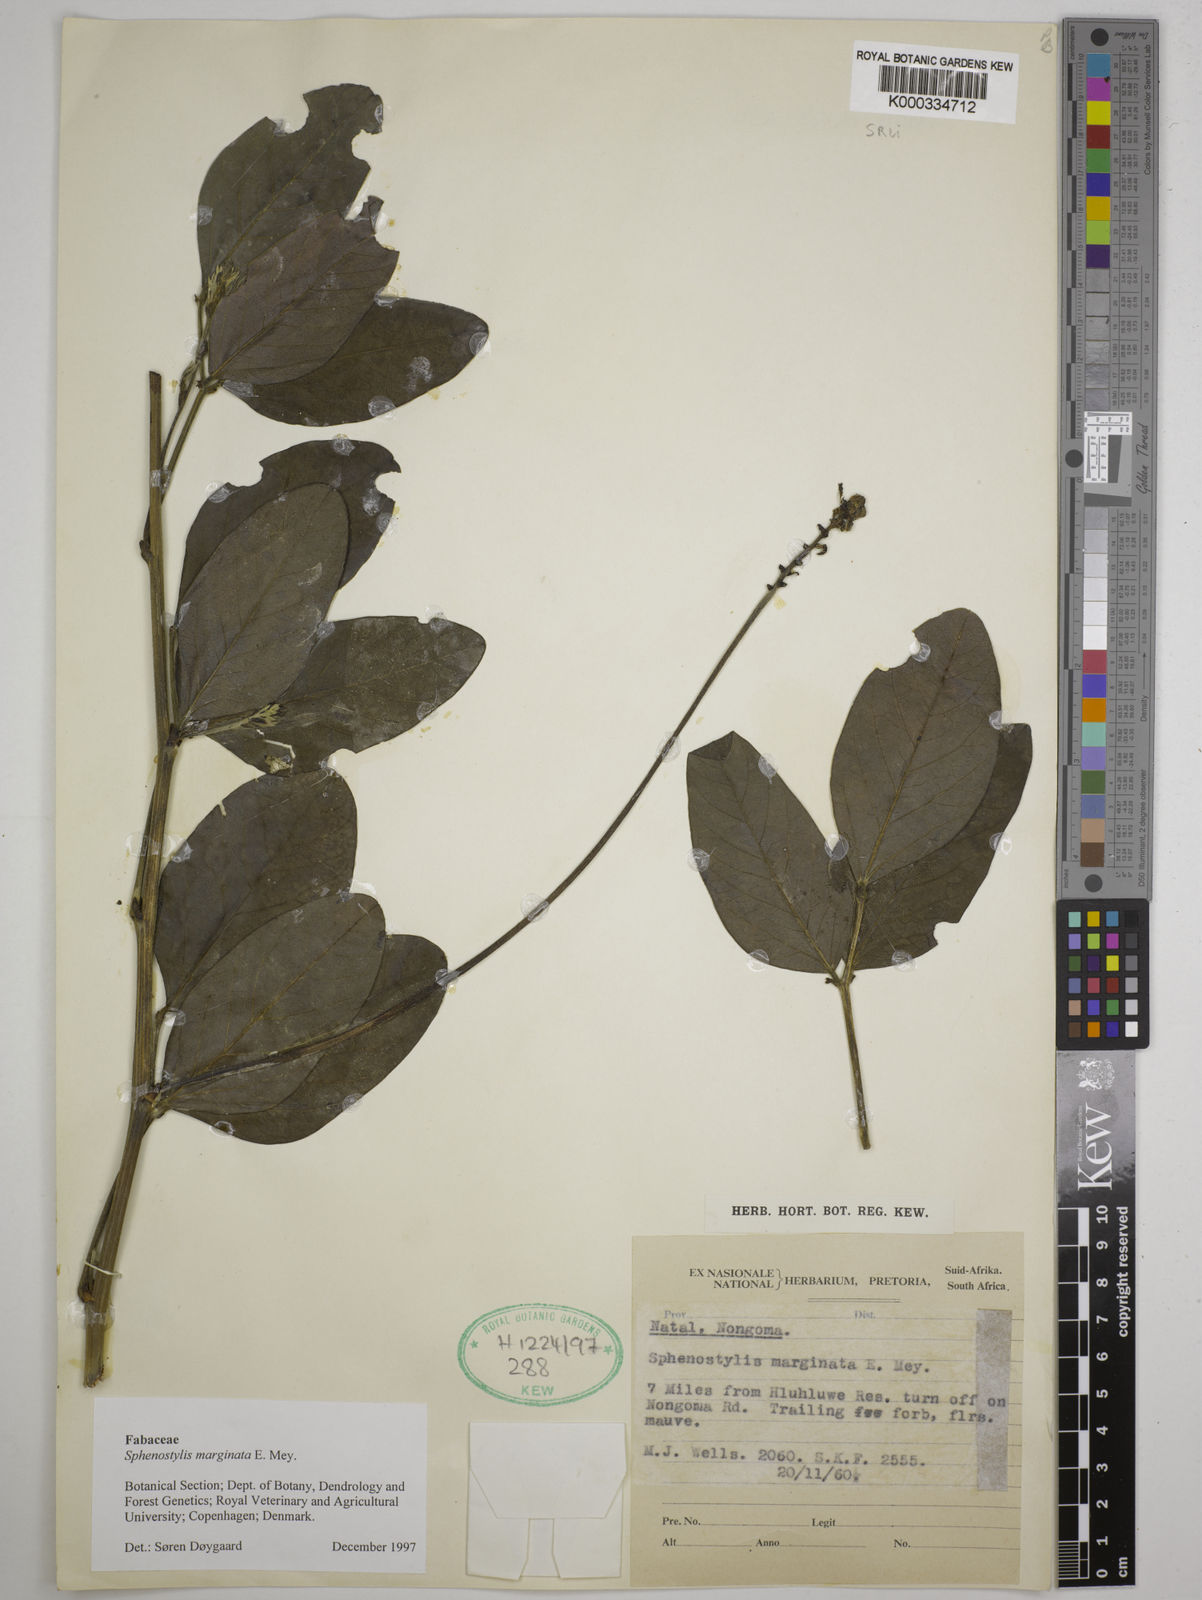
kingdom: Plantae
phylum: Tracheophyta
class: Magnoliopsida
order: Fabales
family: Fabaceae
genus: Sphenostylis
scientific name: Sphenostylis marginata
